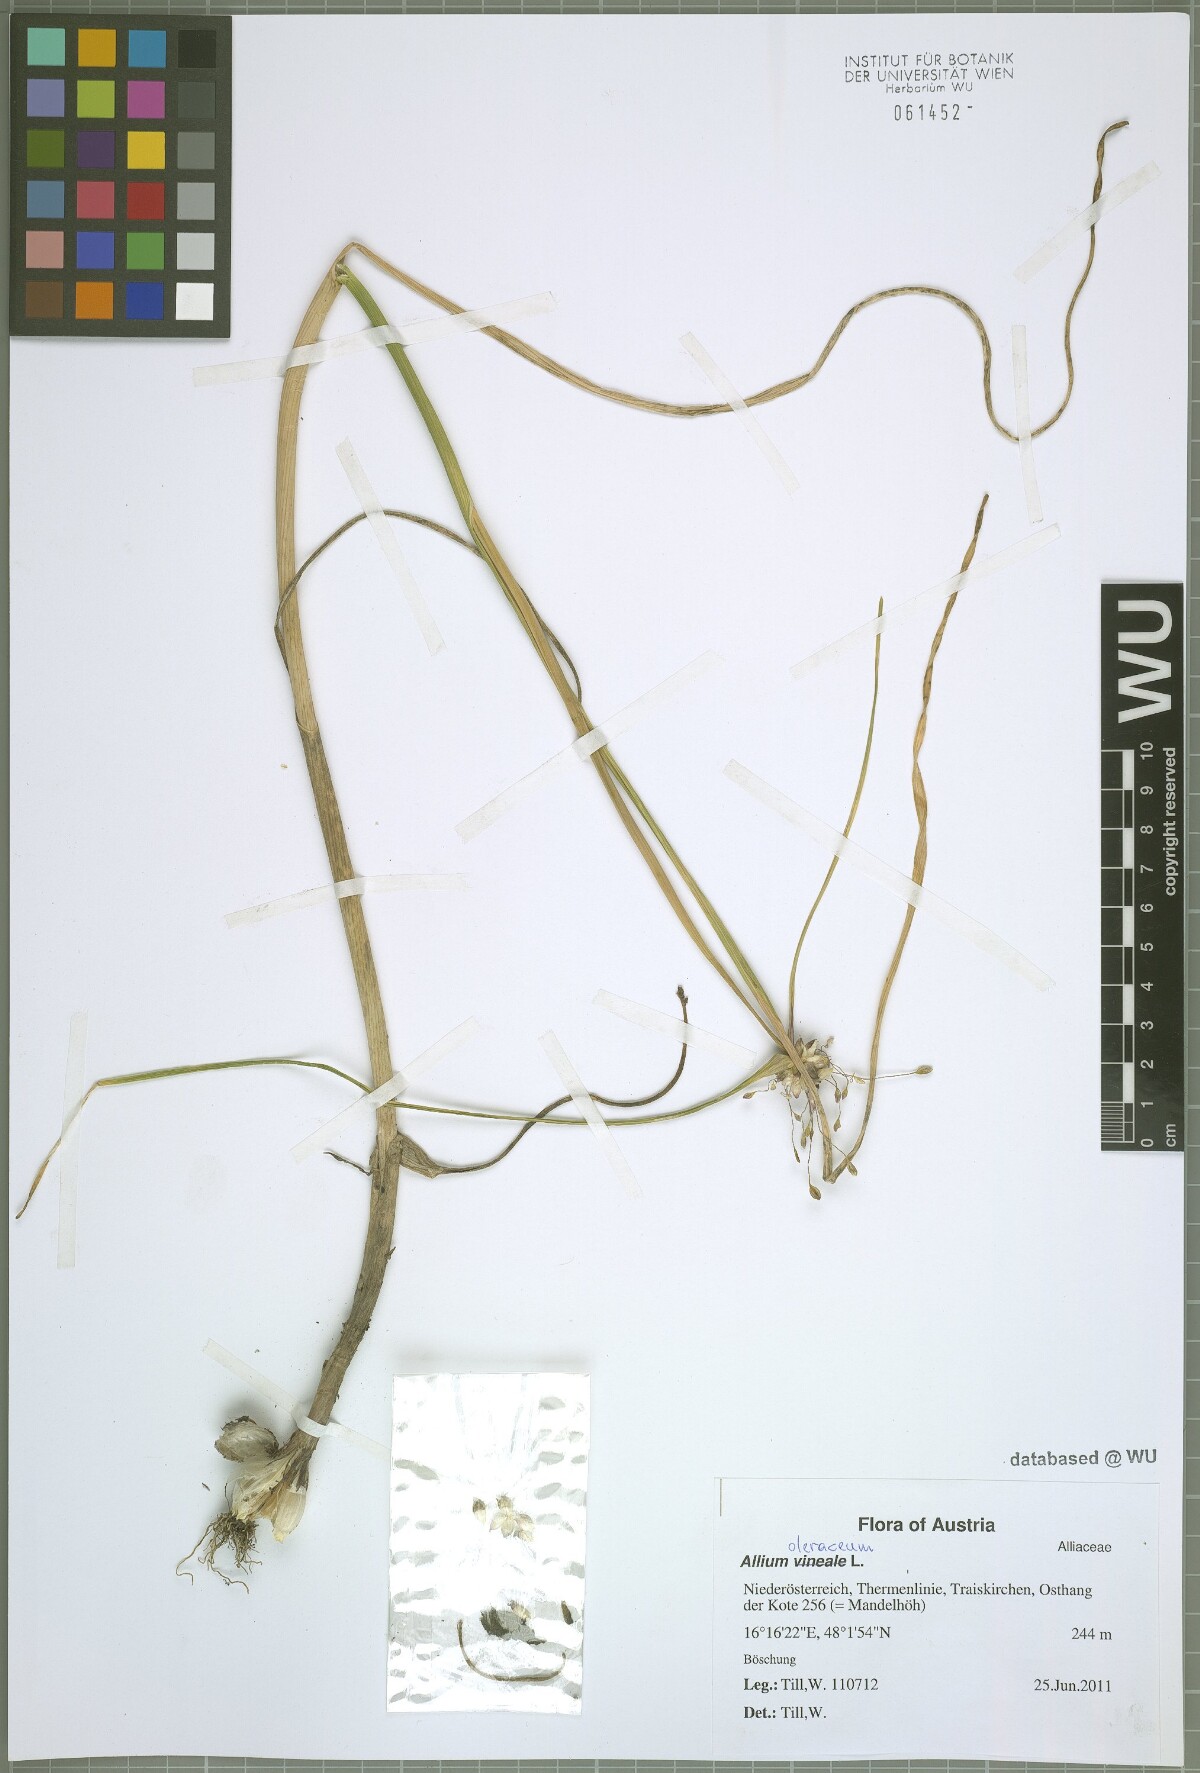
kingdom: Plantae
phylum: Tracheophyta
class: Liliopsida
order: Asparagales
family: Amaryllidaceae
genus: Allium
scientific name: Allium oleraceum
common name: Field garlic
